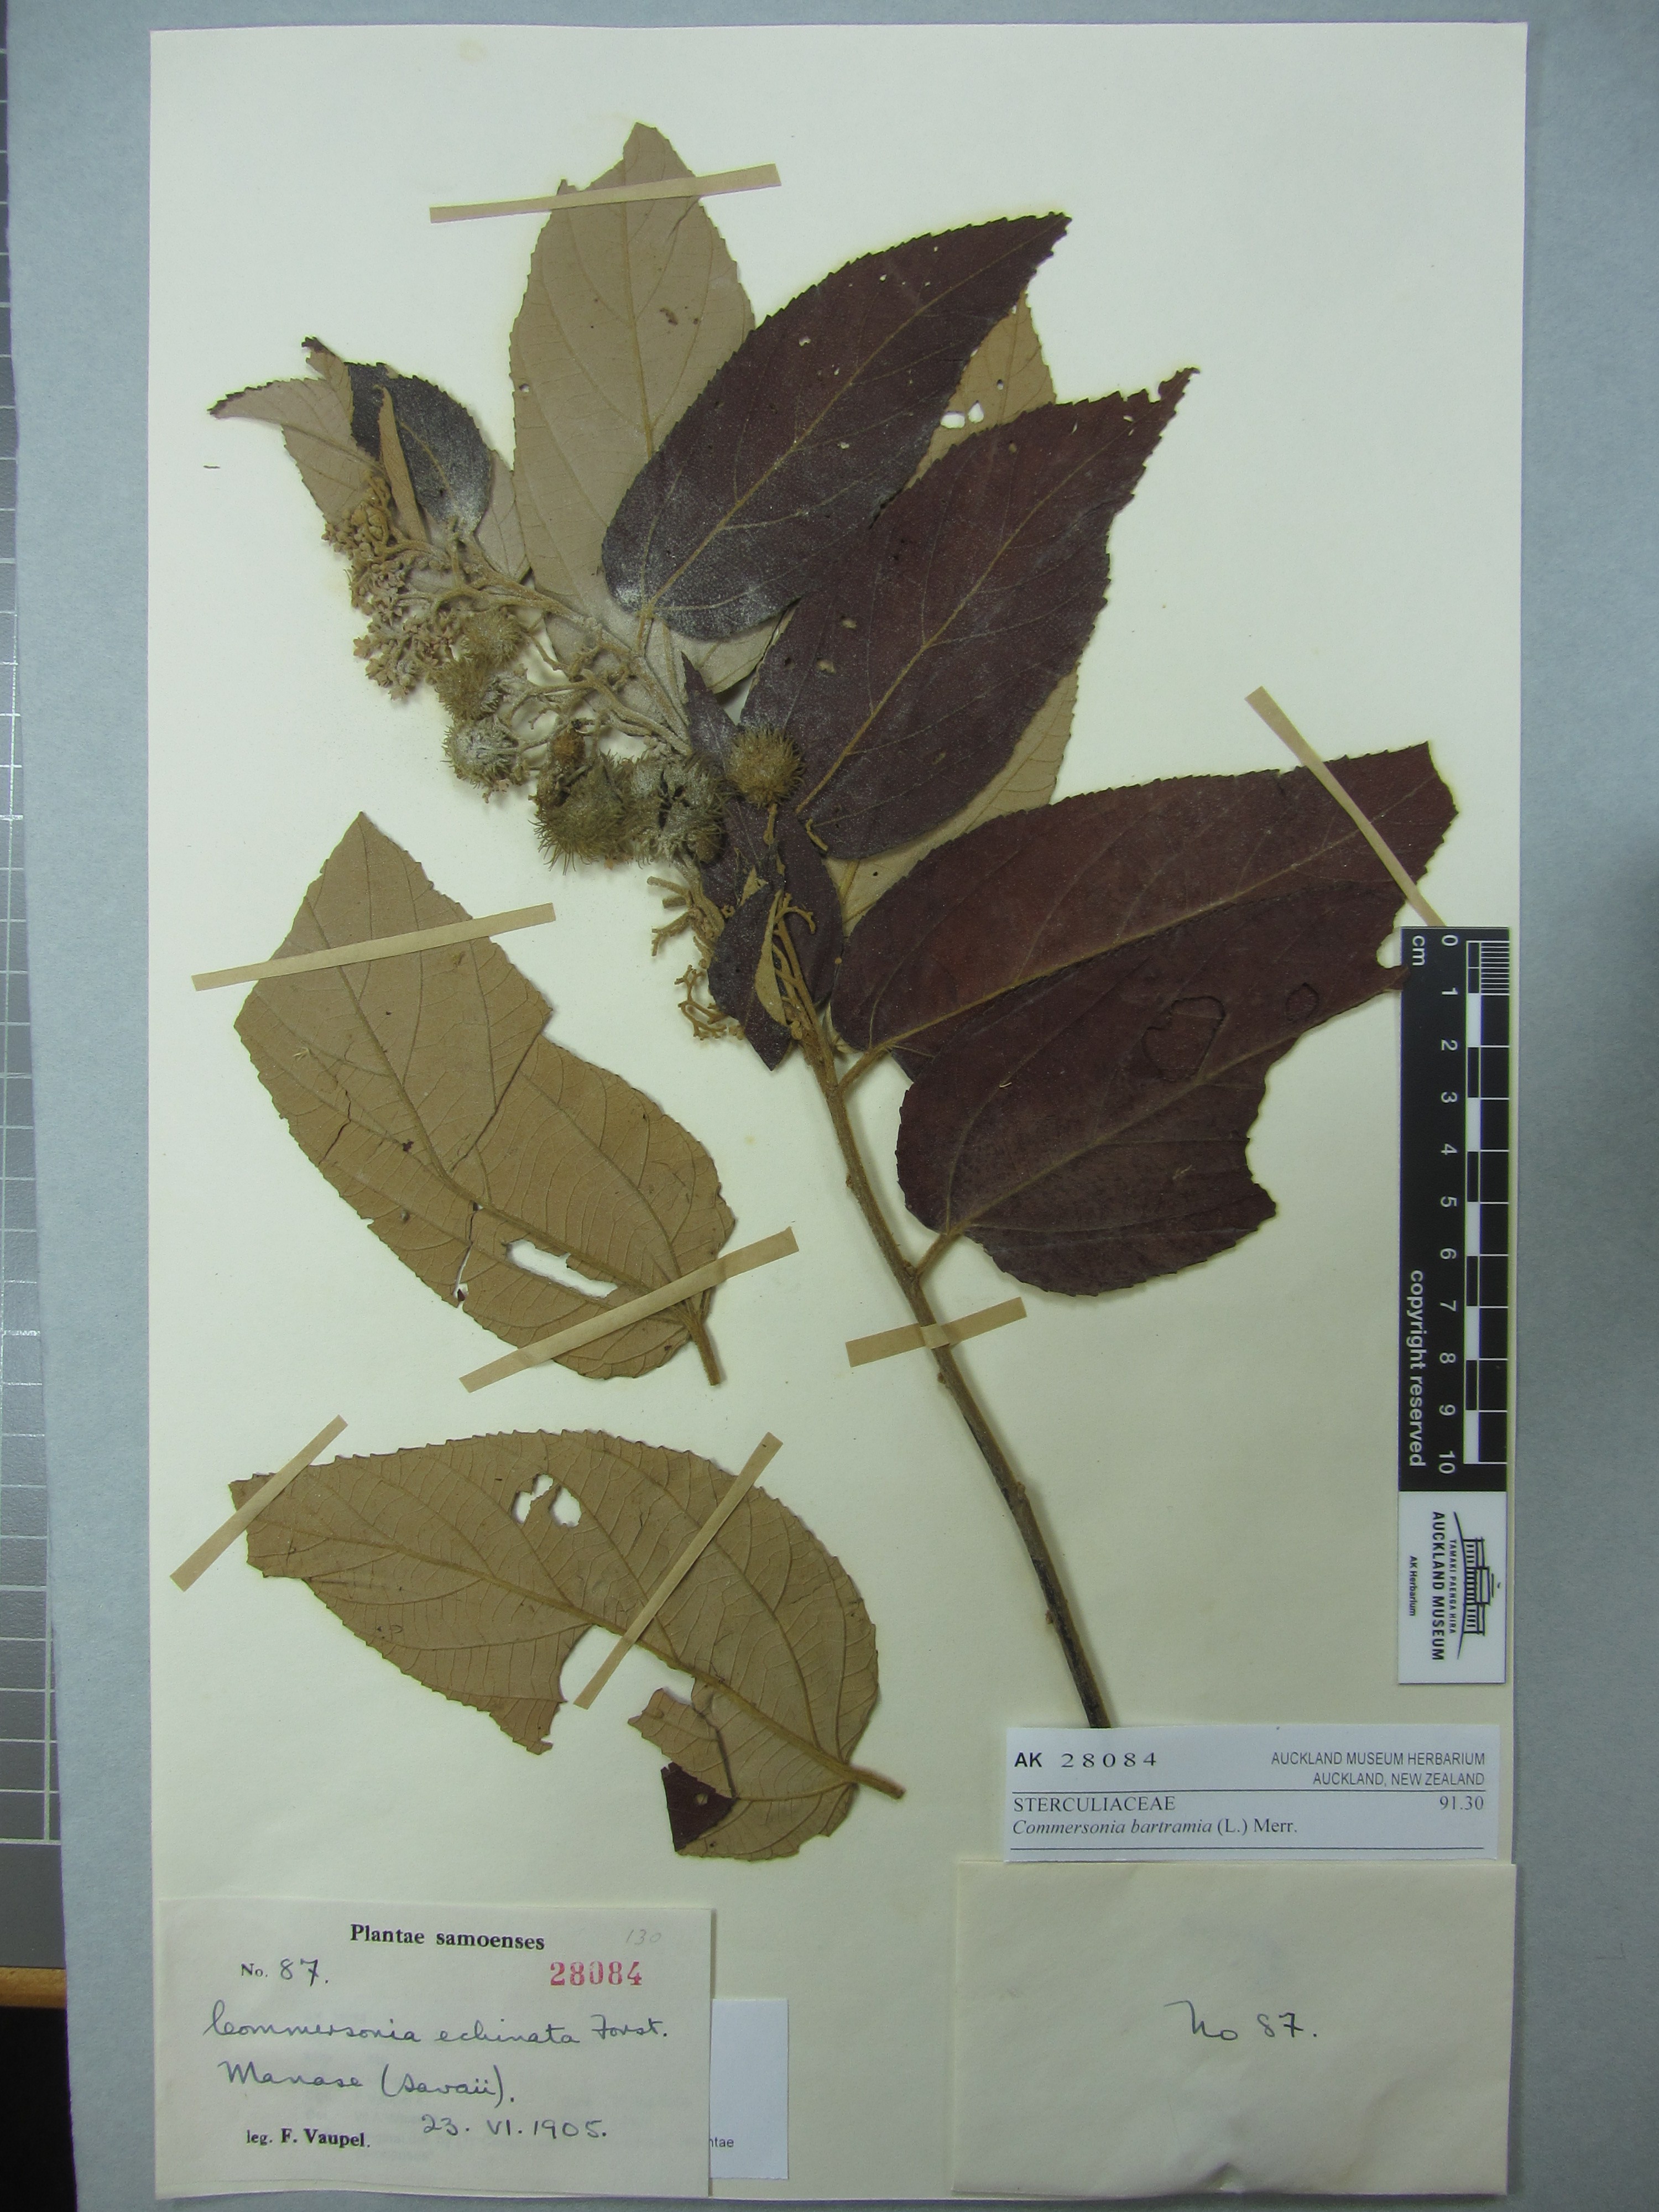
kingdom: Plantae
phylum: Tracheophyta
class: Magnoliopsida
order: Malvales
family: Malvaceae
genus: Commersonia
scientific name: Commersonia bartramia
